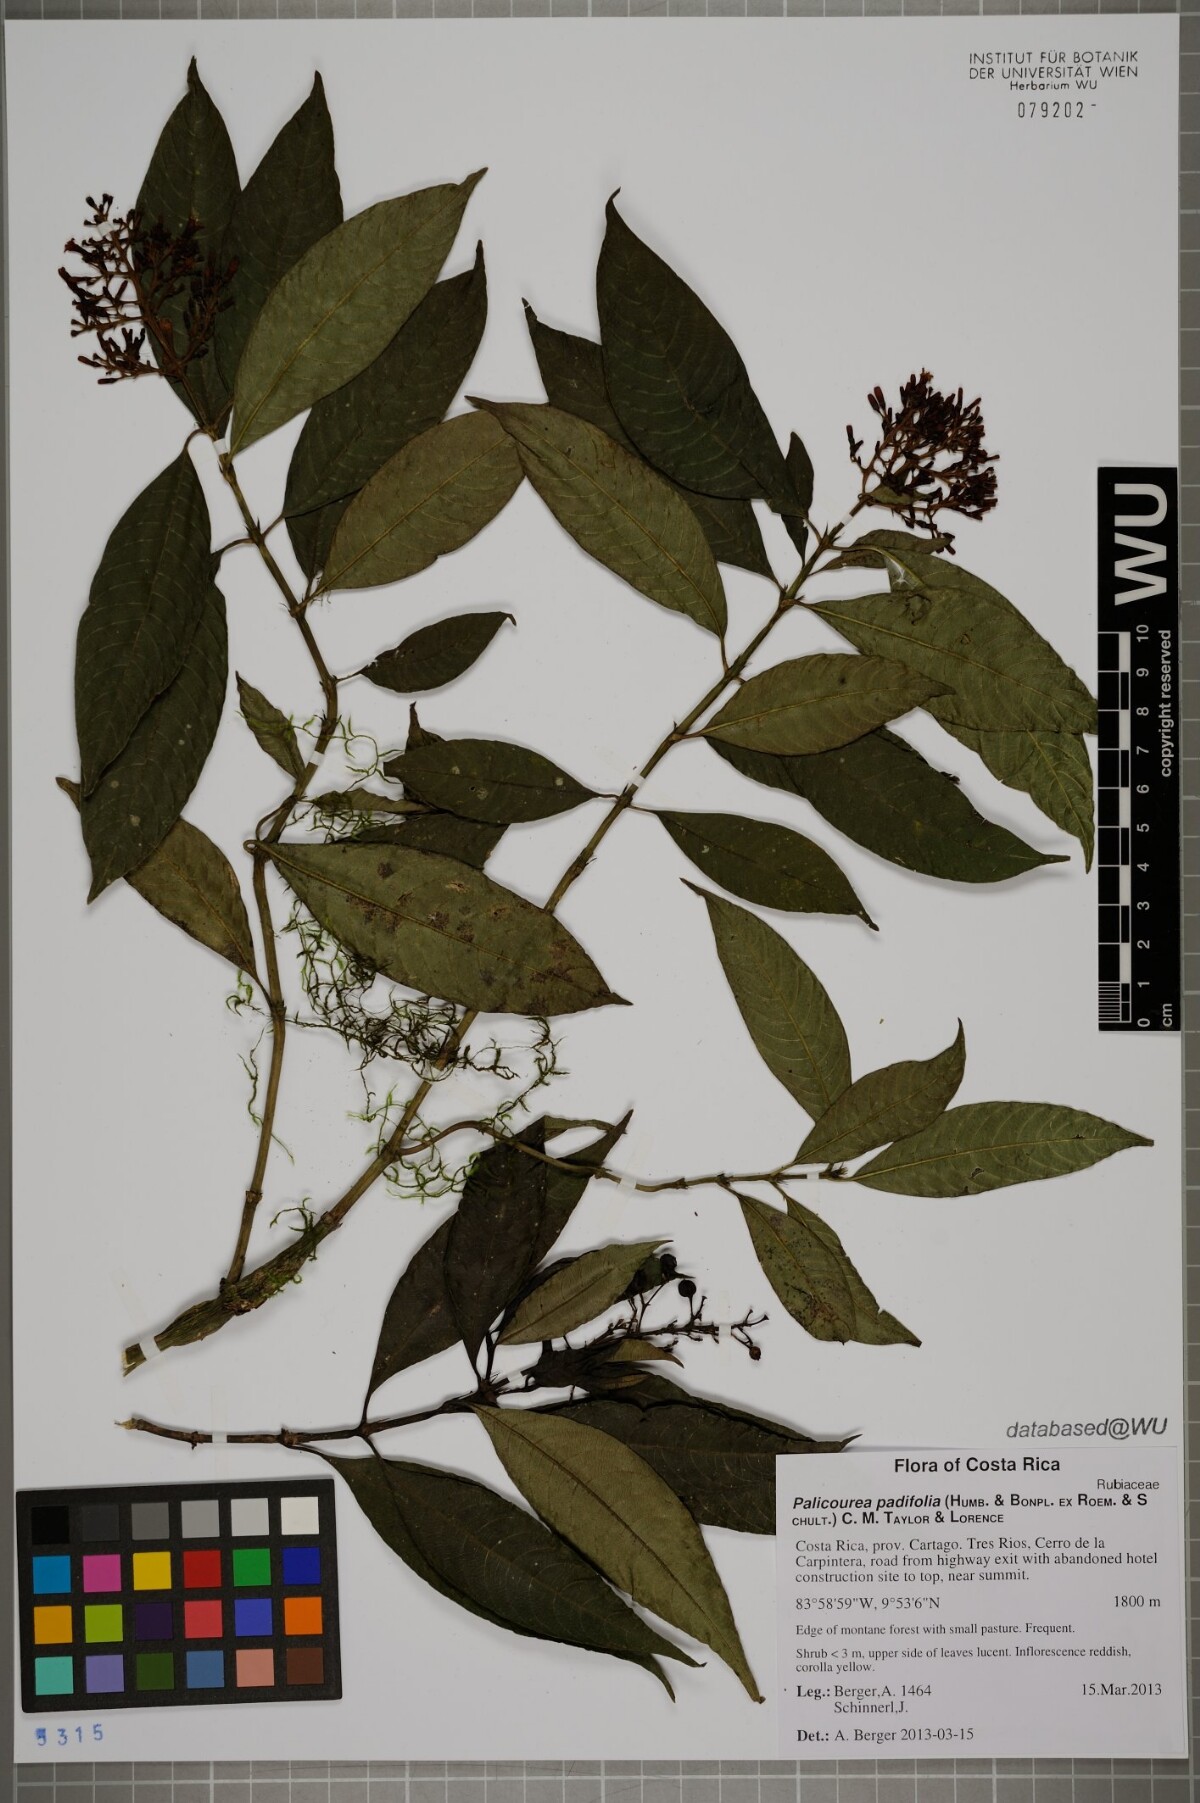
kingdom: Plantae
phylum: Tracheophyta
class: Magnoliopsida
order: Gentianales
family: Rubiaceae
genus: Palicourea
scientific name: Palicourea padifolia
